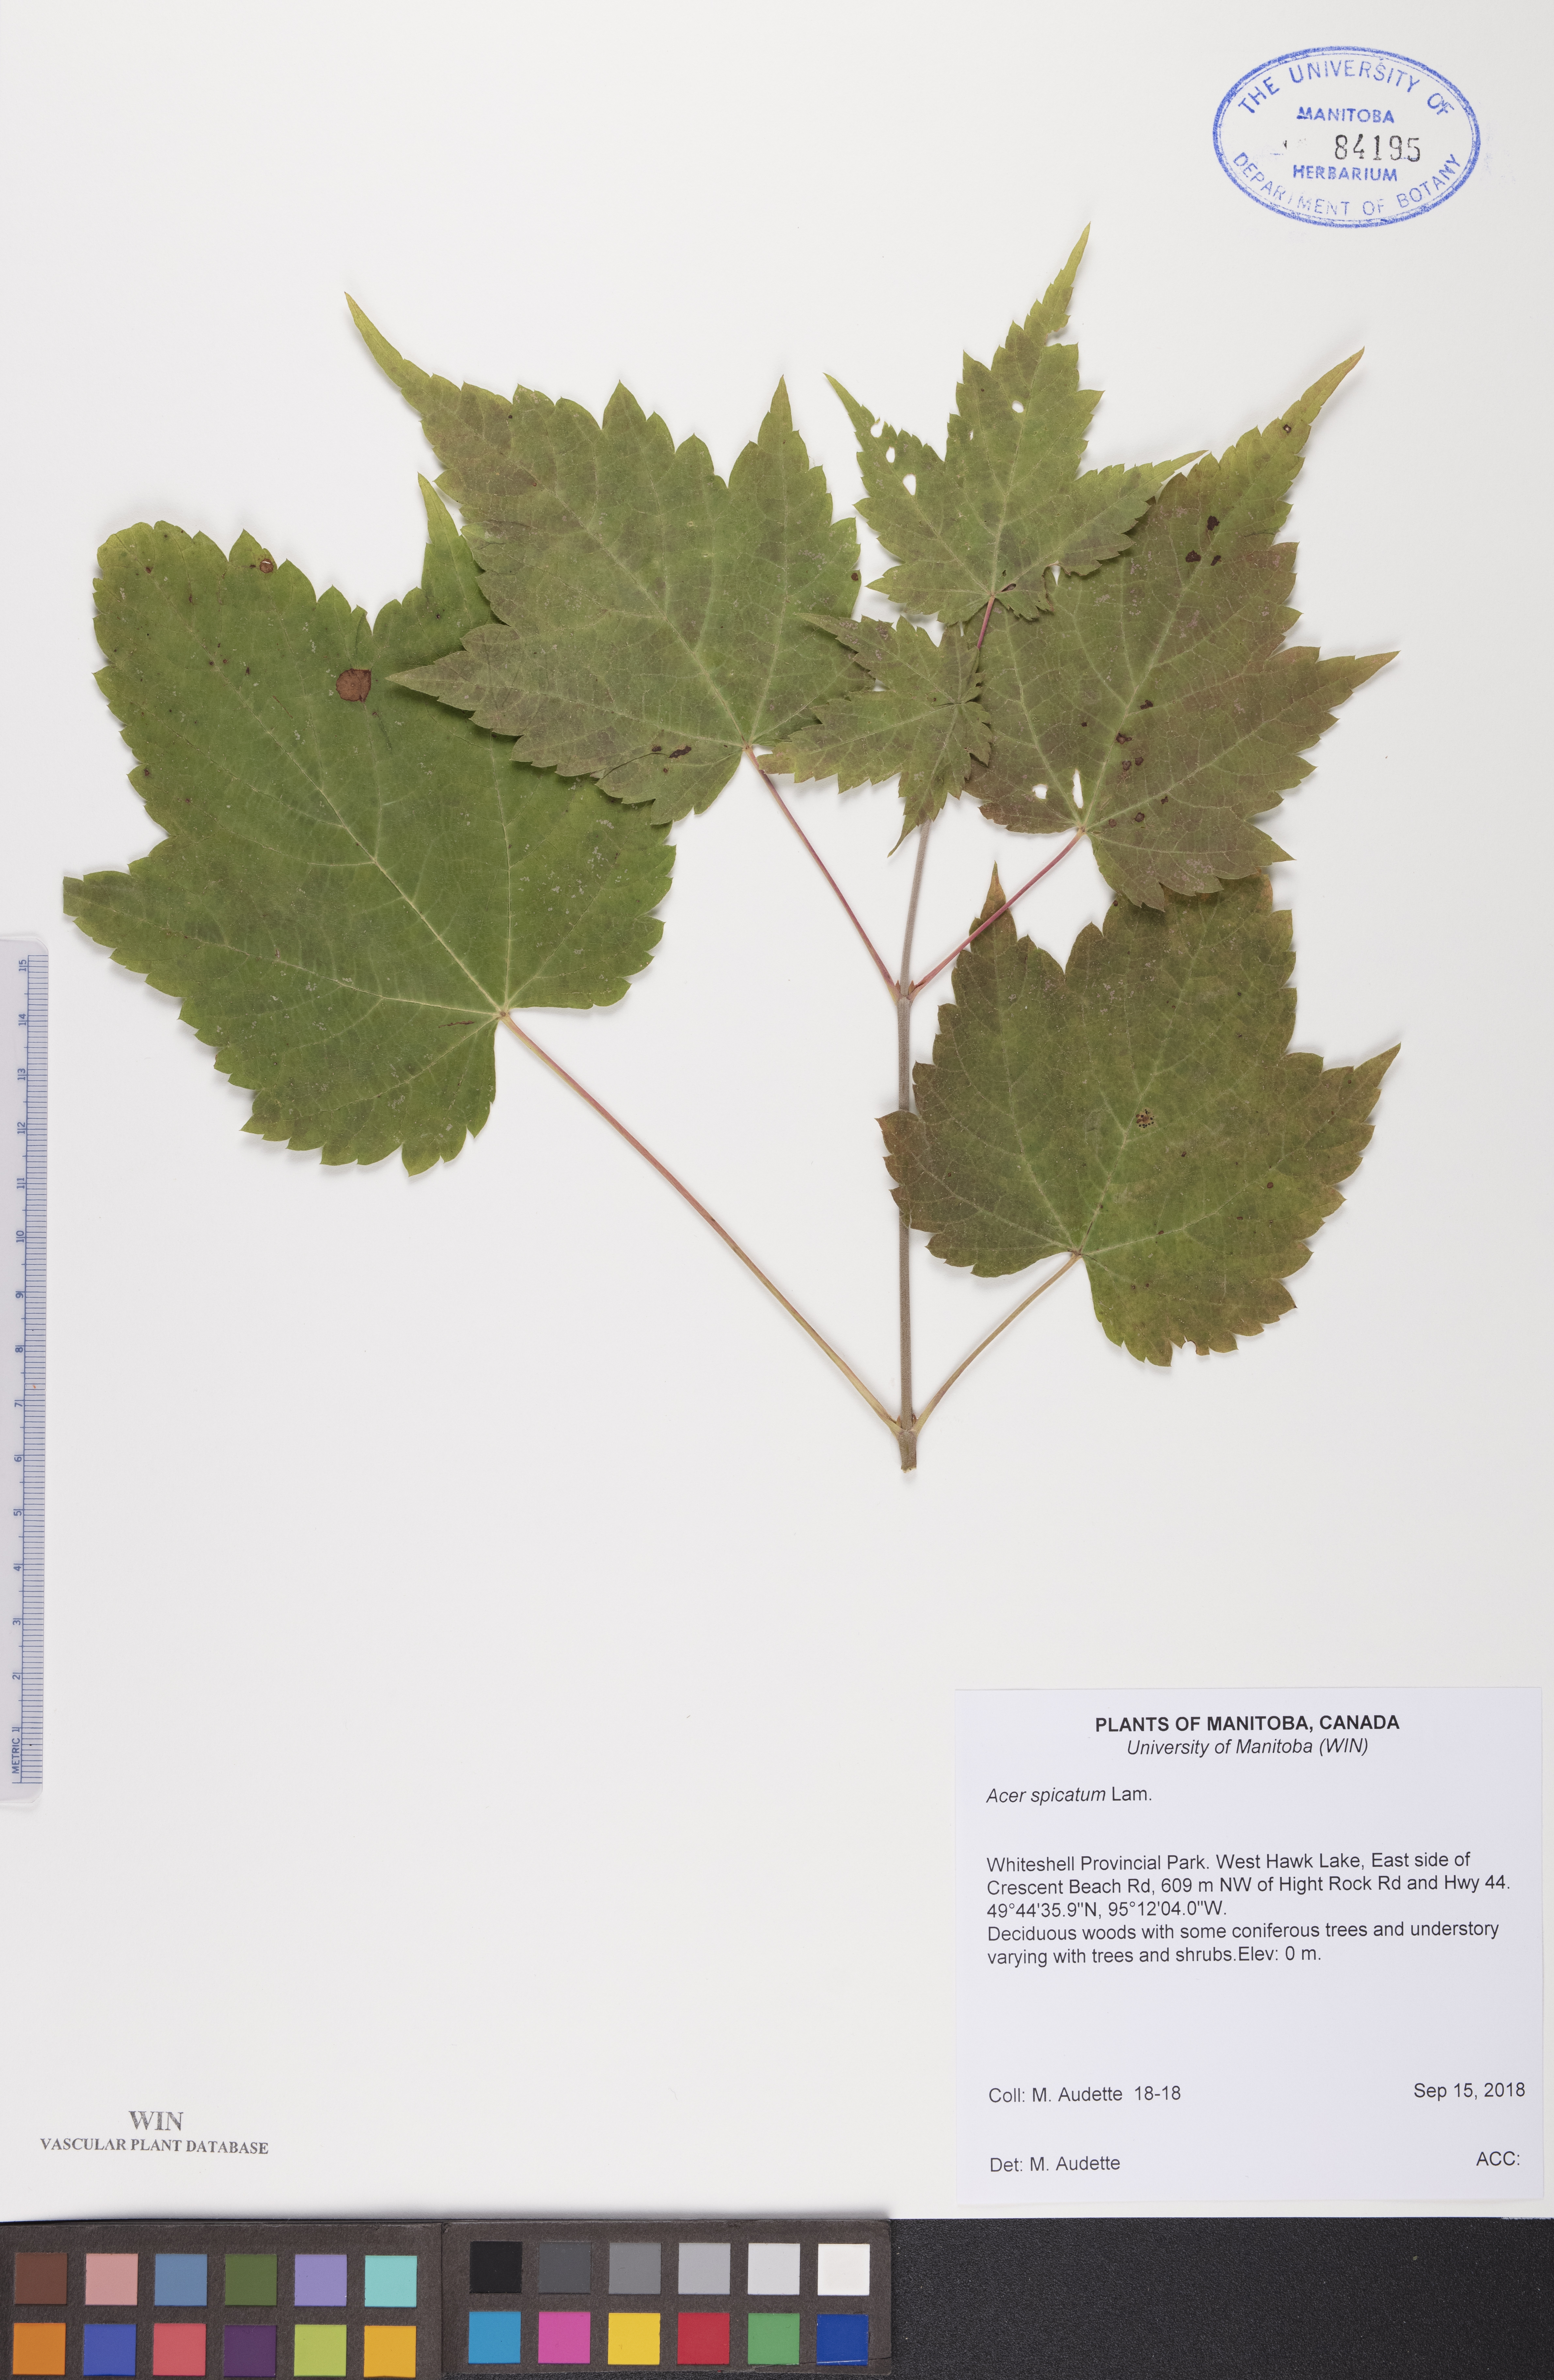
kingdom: Plantae
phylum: Tracheophyta
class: Magnoliopsida
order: Sapindales
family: Sapindaceae
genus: Acer
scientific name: Acer spicatum
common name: Mountain maple
